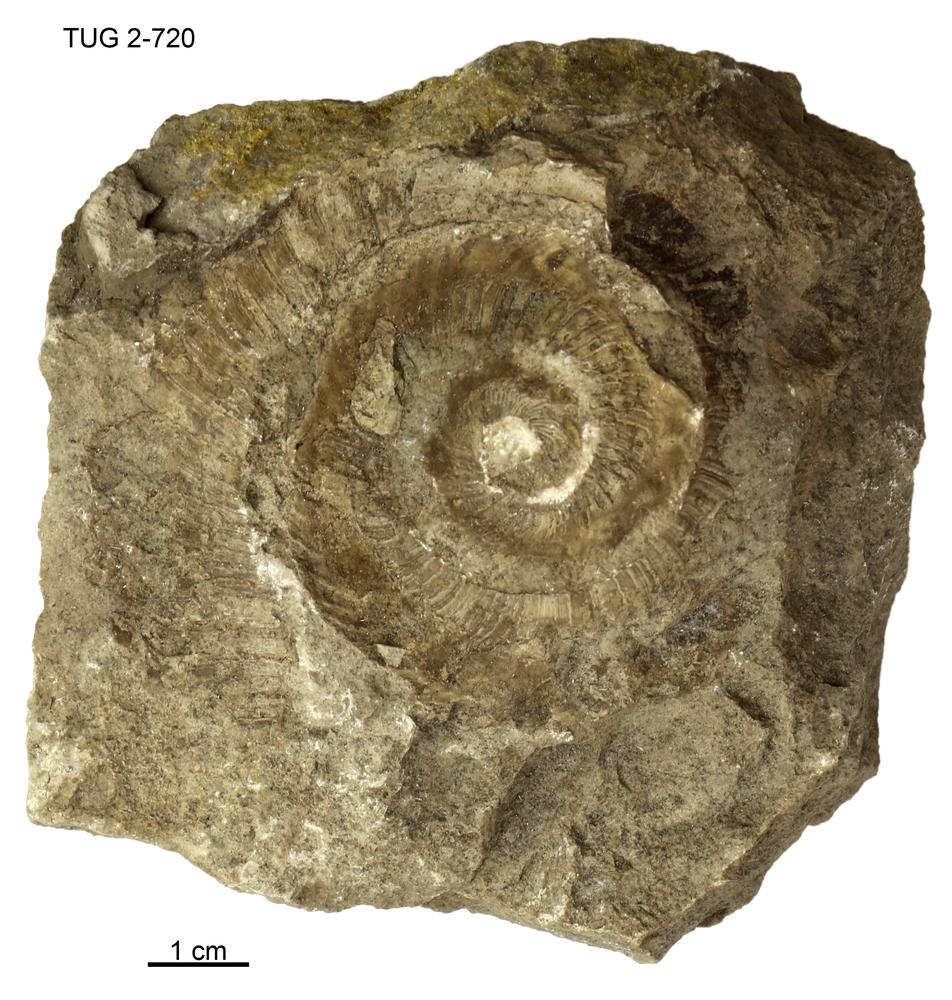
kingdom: Animalia
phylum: Mollusca
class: Cephalopoda
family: Trocholitidae
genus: Discoceras
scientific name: Discoceras
